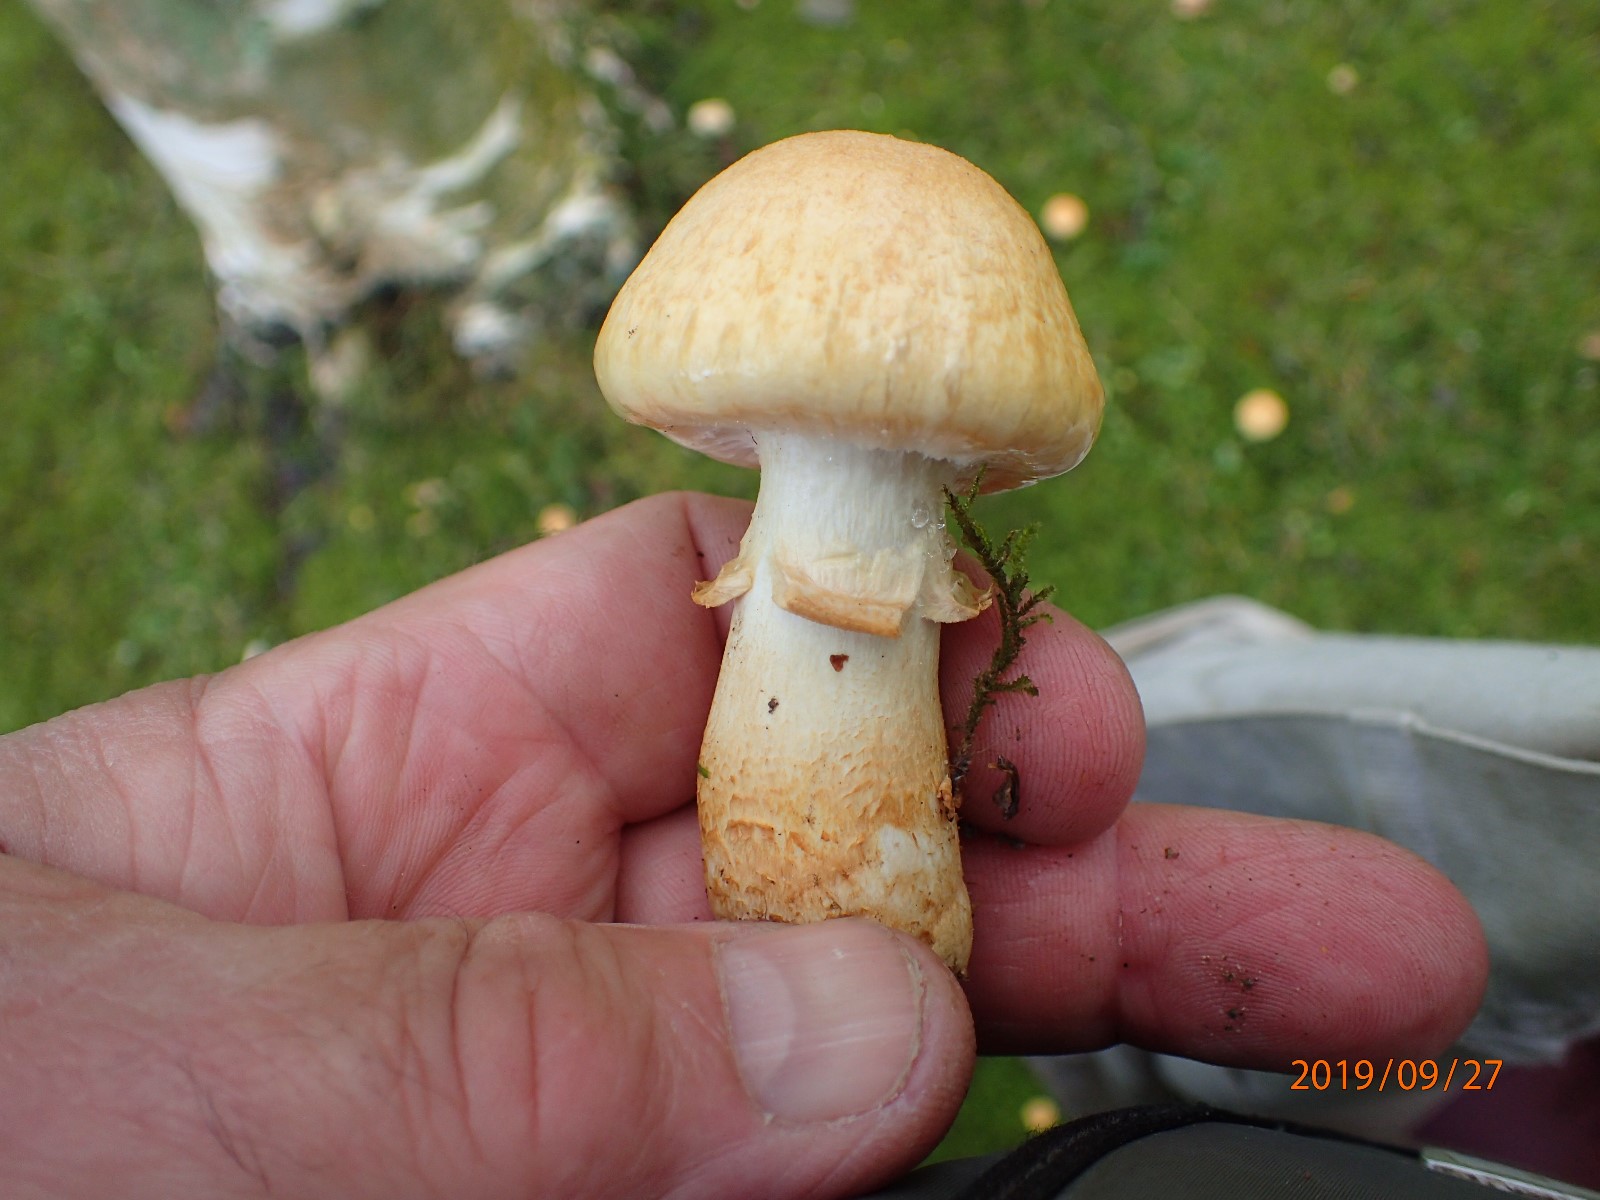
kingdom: Fungi
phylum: Basidiomycota
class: Agaricomycetes
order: Agaricales
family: Cortinariaceae
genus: Phlegmacium
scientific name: Phlegmacium triumphans
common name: gulbæltet slørhat
